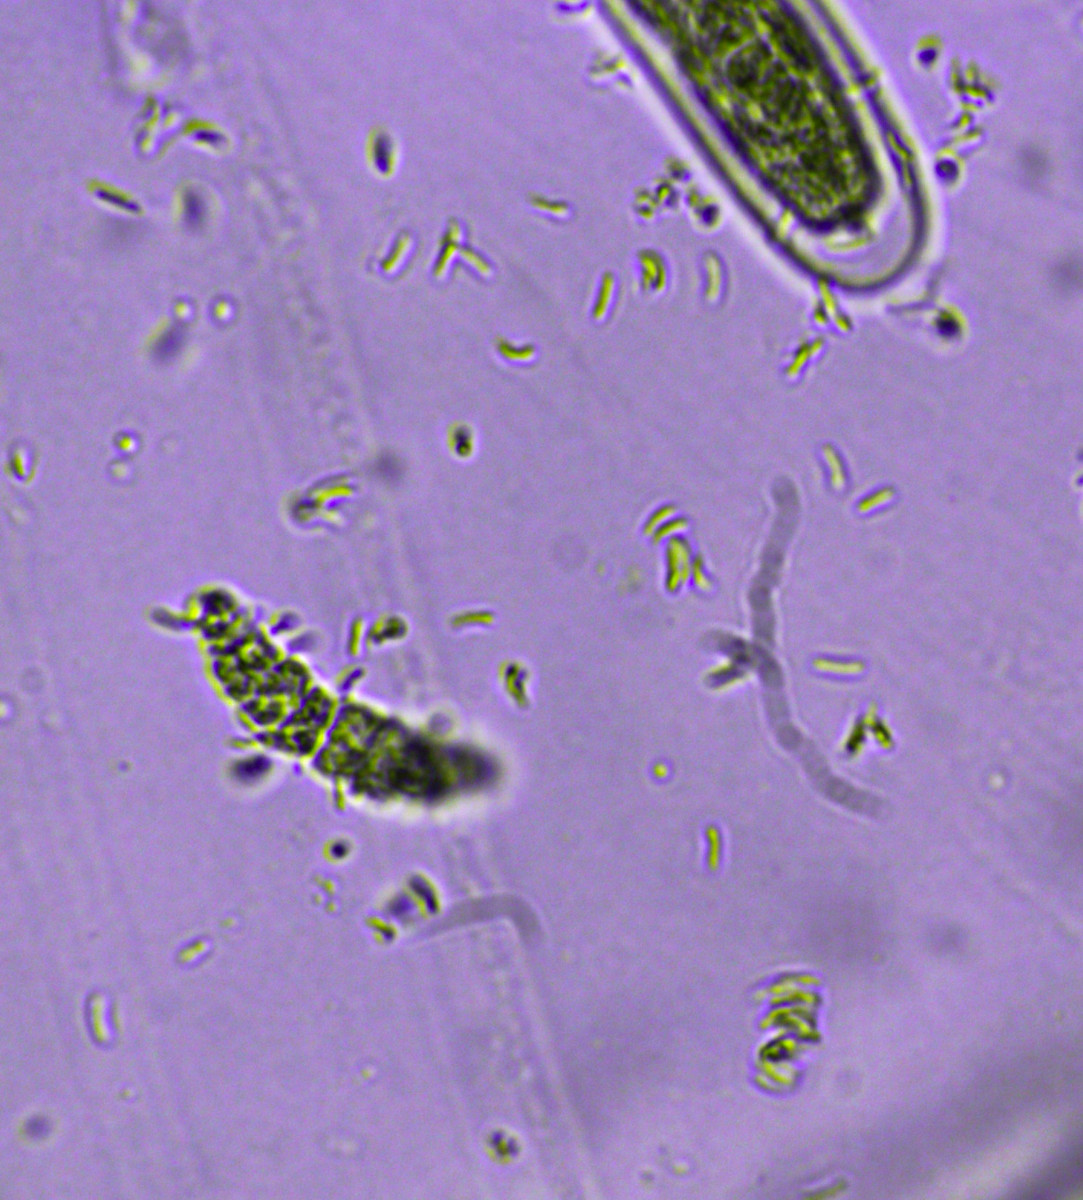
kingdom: Fungi
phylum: Ascomycota
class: Leotiomycetes
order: Leotiales
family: Tympanidaceae
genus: Vexillomyces
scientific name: Vexillomyces atrovirens
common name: sortgrøn linseskive
